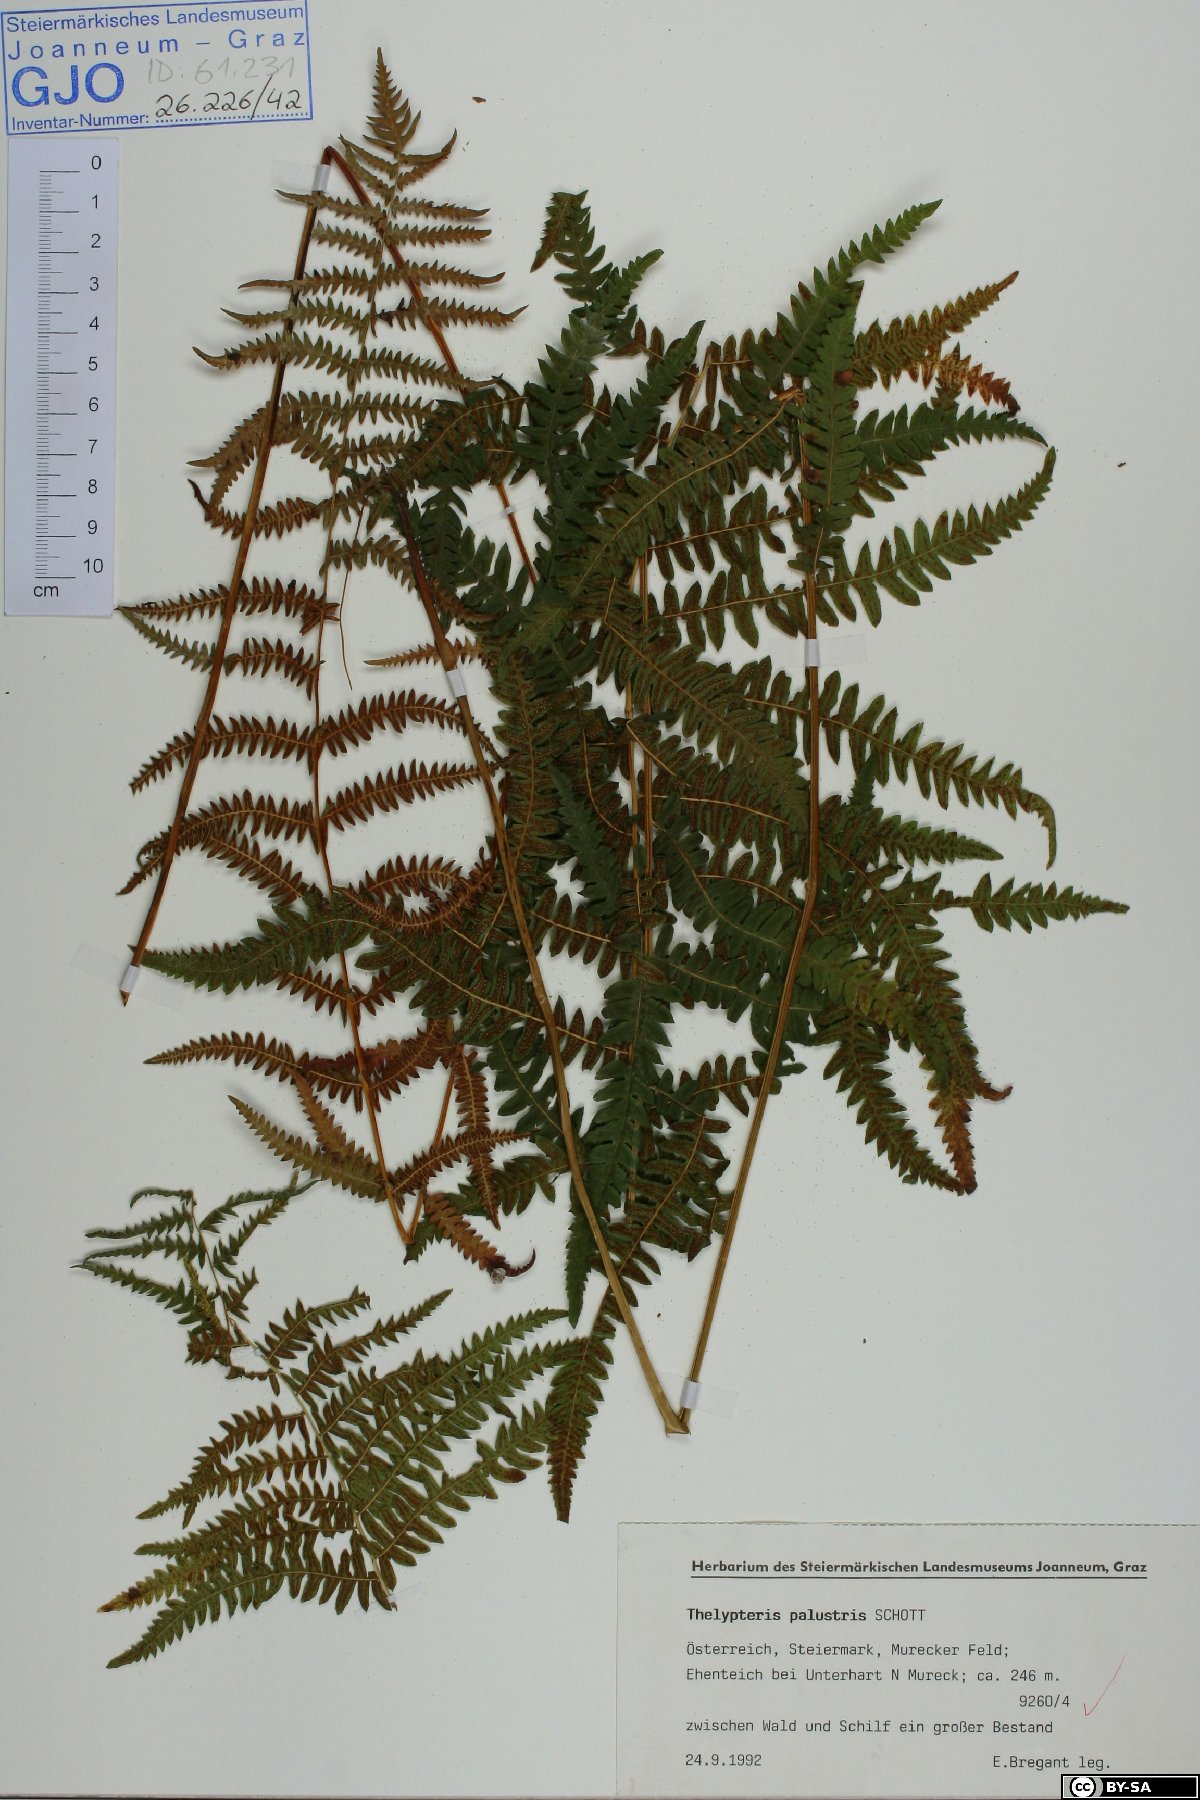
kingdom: Plantae
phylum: Tracheophyta
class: Polypodiopsida
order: Polypodiales
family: Thelypteridaceae
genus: Thelypteris
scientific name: Thelypteris palustris
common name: Marsh fern
